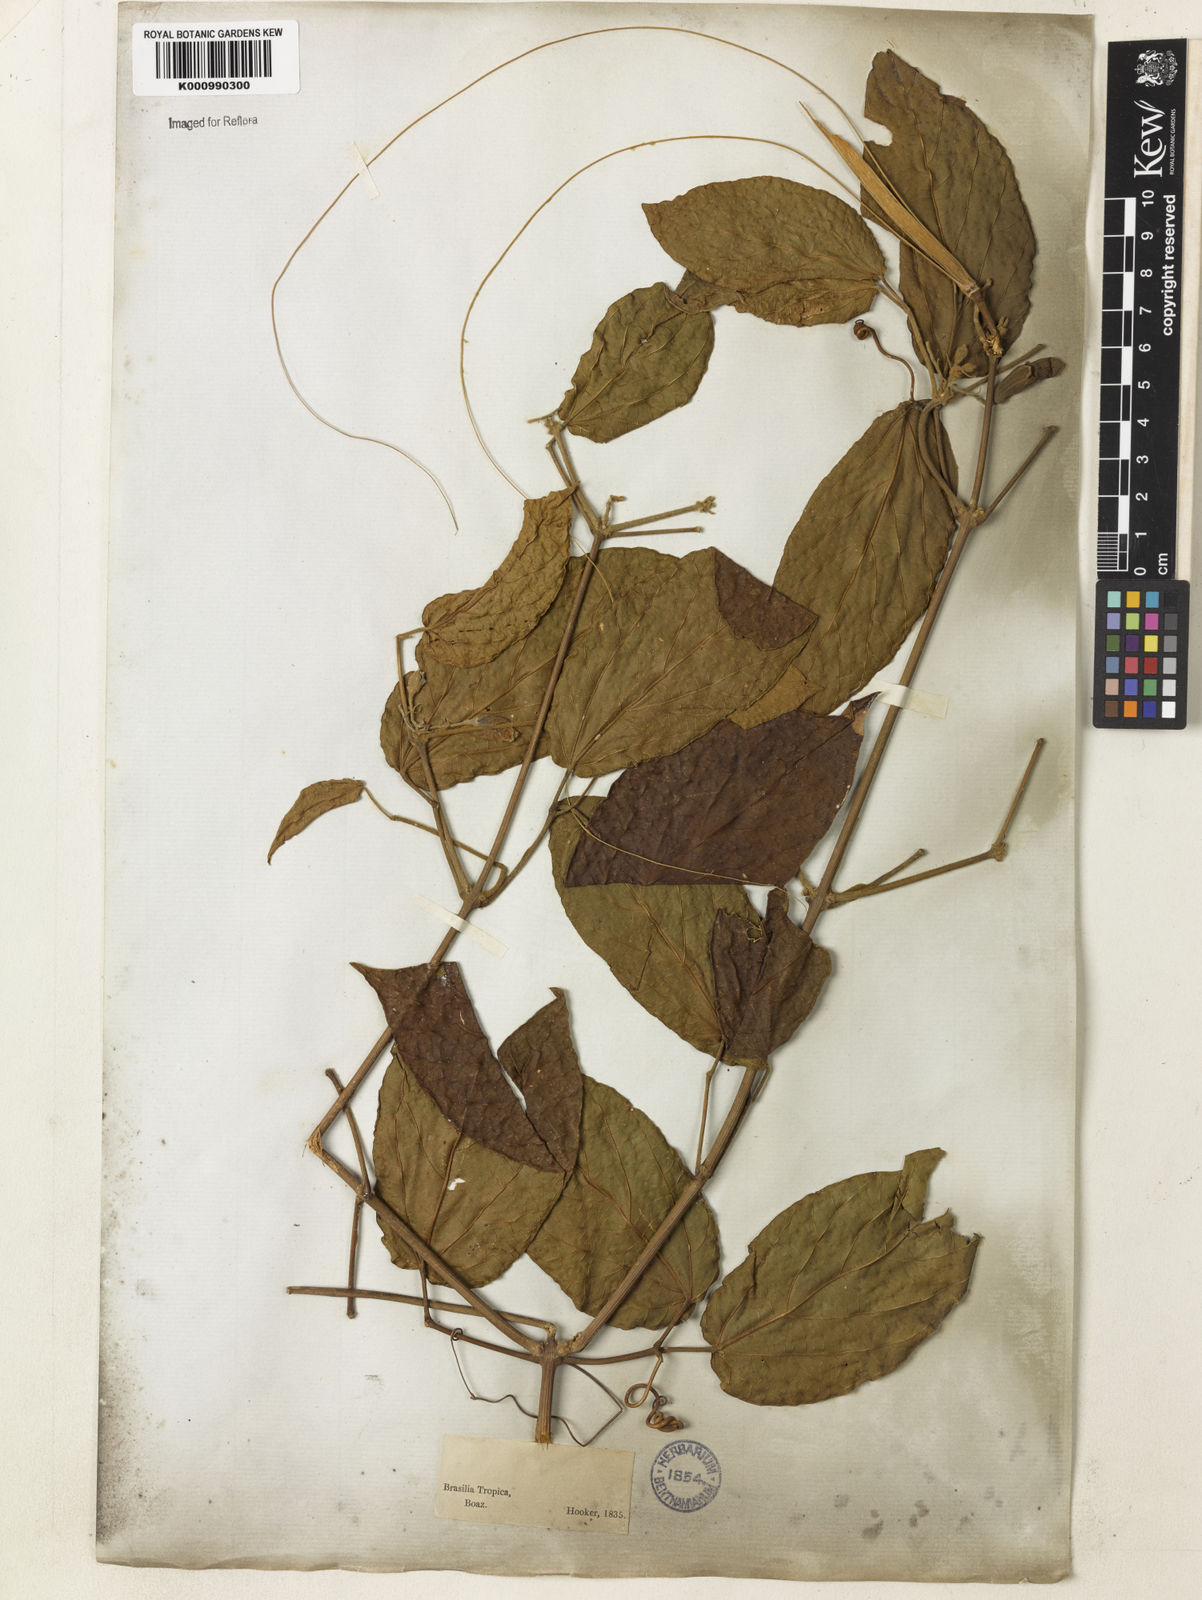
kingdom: Plantae
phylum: Tracheophyta
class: Magnoliopsida
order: Lamiales
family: Bignoniaceae
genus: Stizophyllum
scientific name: Stizophyllum perforatum
